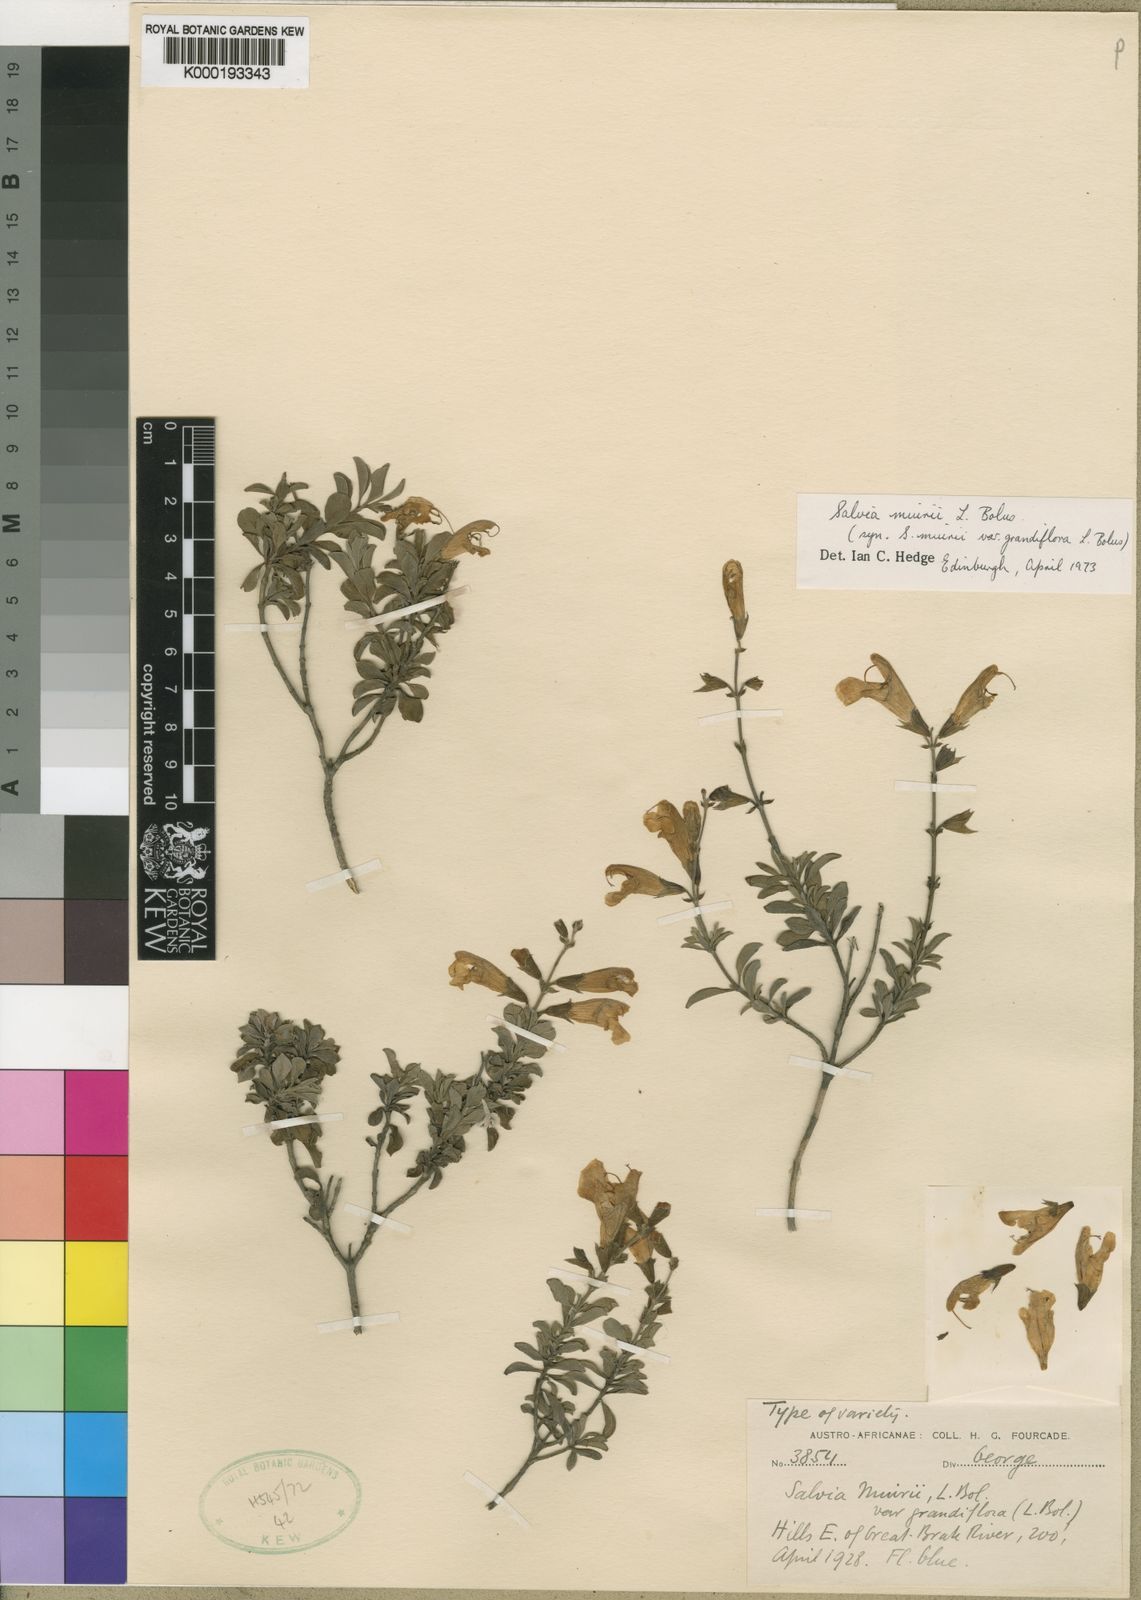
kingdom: Plantae
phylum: Tracheophyta
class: Magnoliopsida
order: Lamiales
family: Lamiaceae
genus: Salvia
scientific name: Salvia muirii
